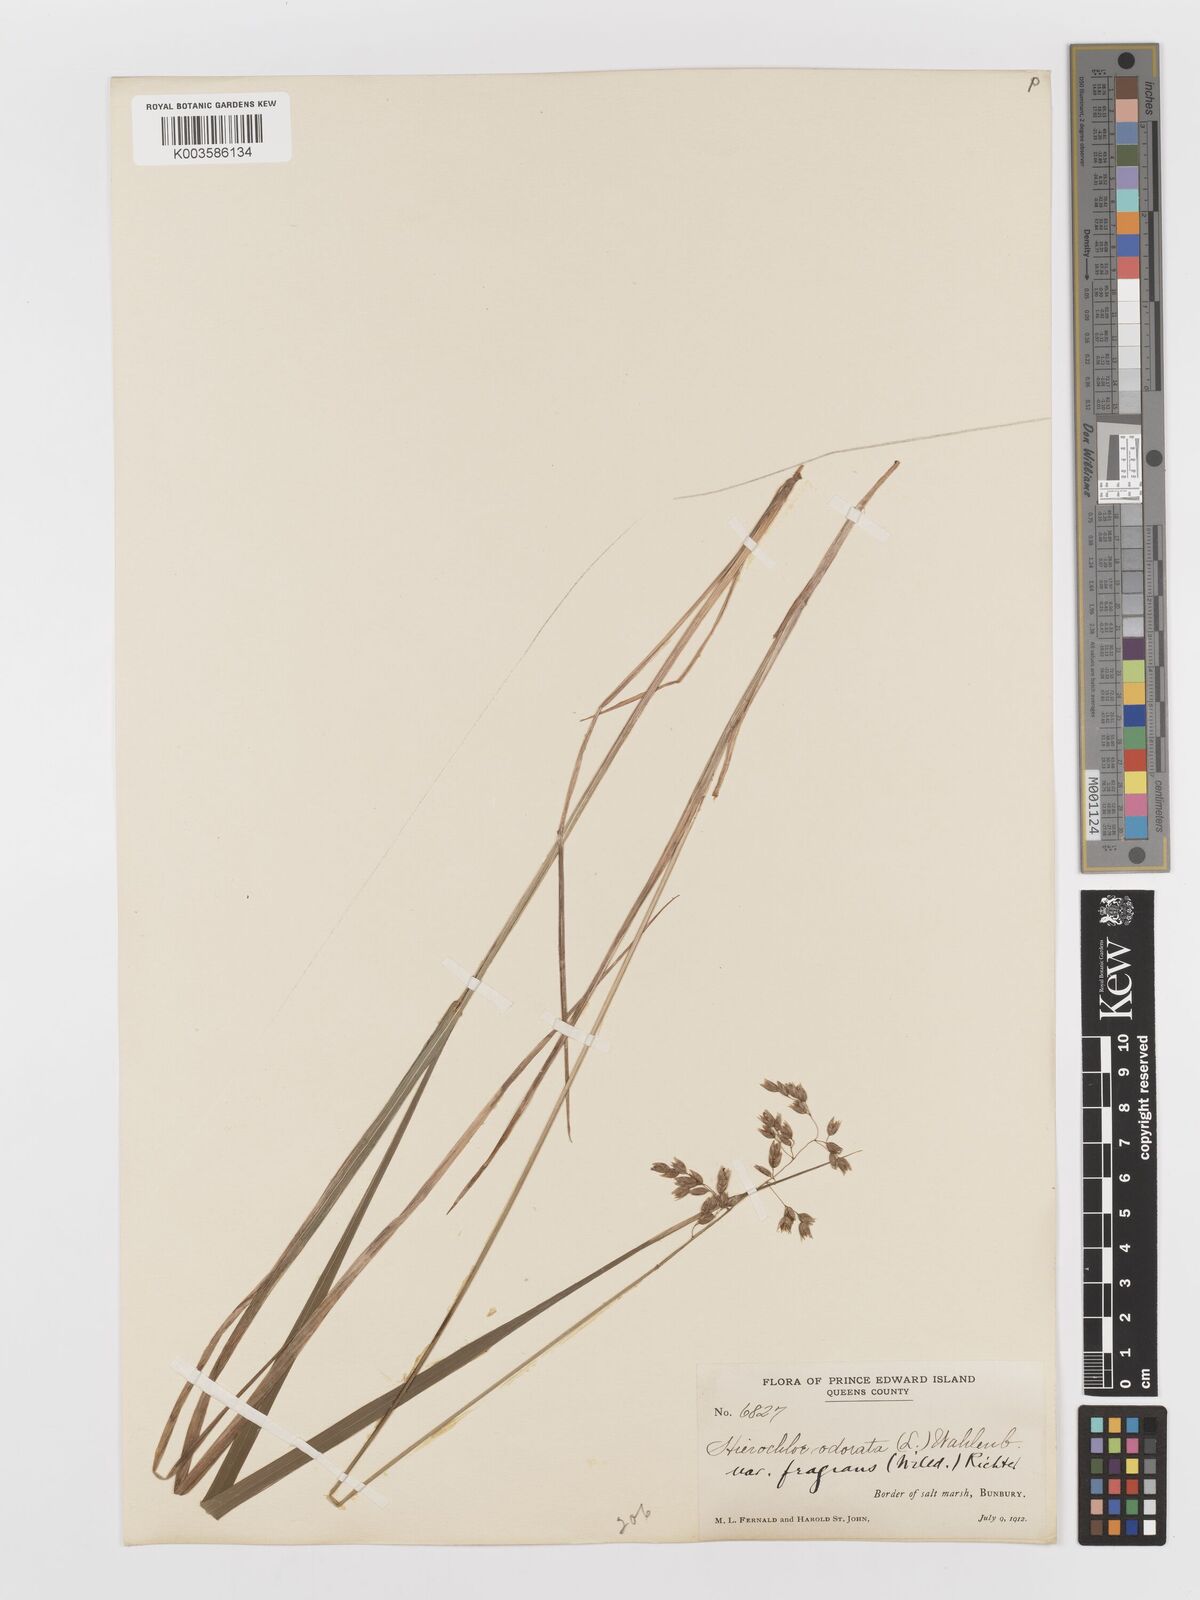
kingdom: Plantae
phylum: Tracheophyta
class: Liliopsida
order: Poales
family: Poaceae
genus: Anthoxanthum
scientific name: Anthoxanthum nitens
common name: Holy grass
